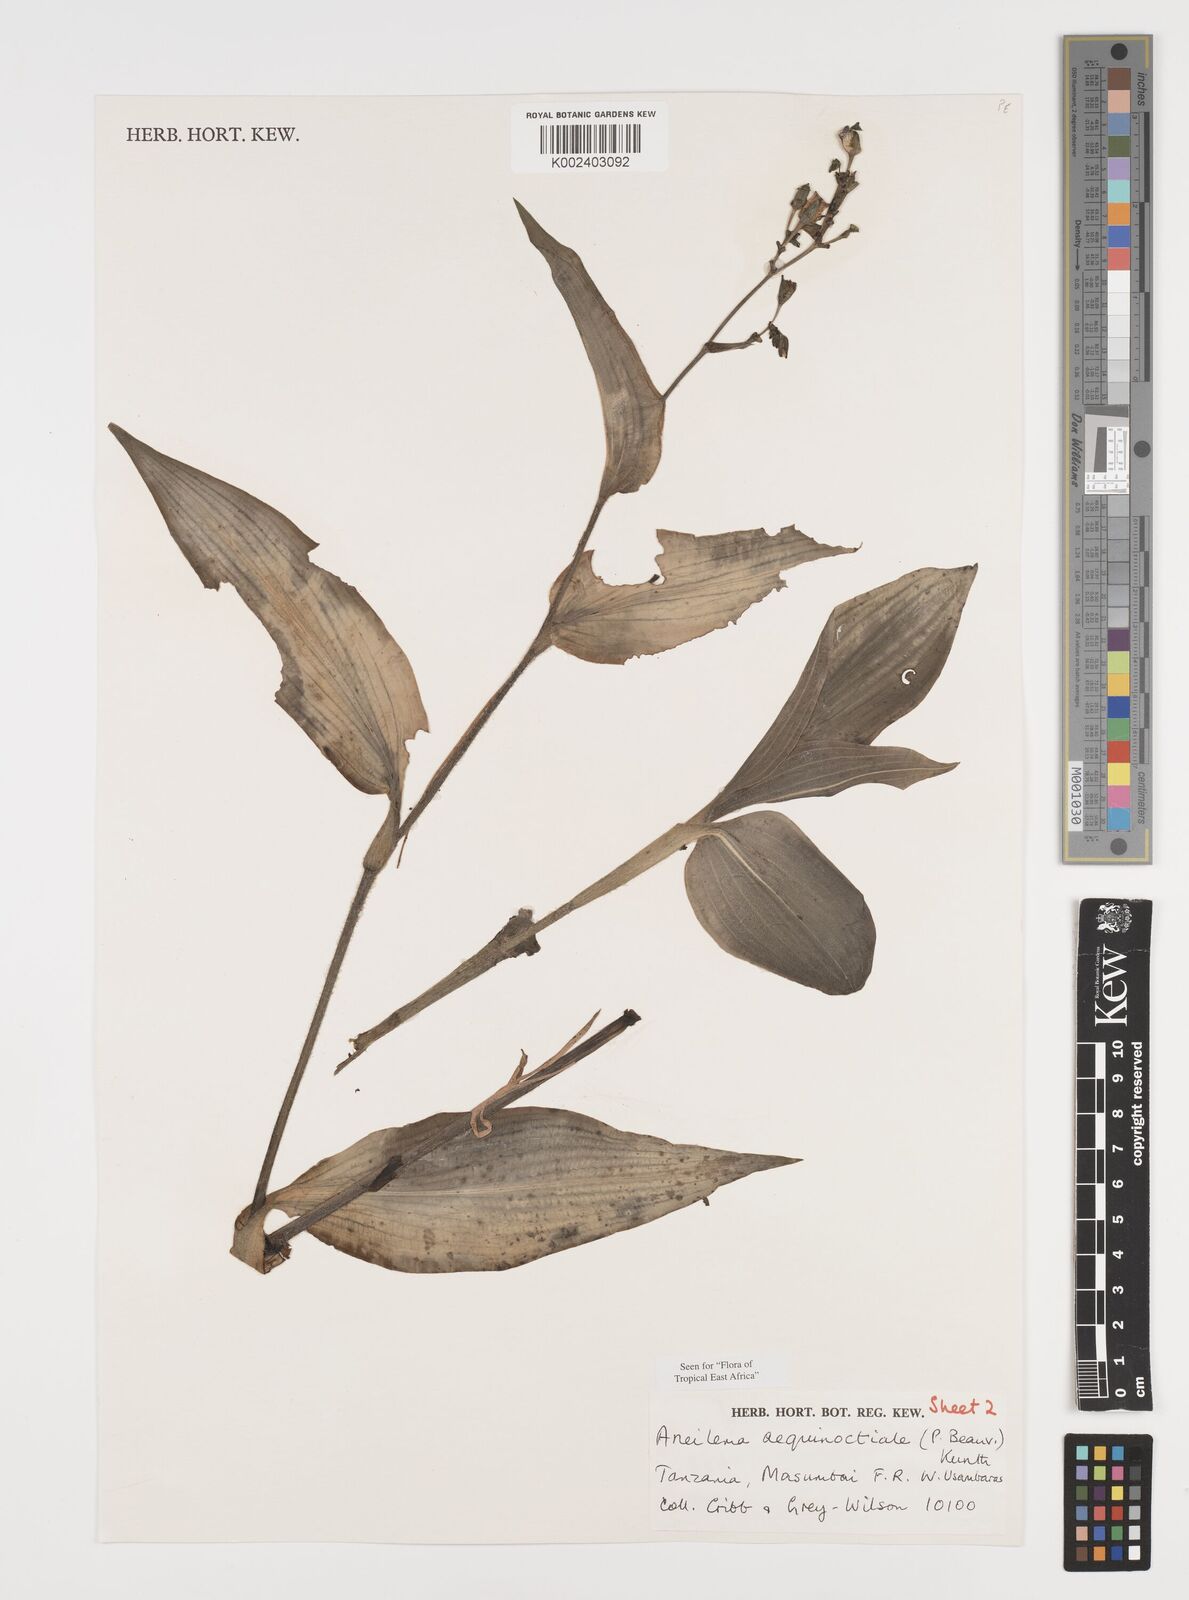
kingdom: Plantae
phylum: Tracheophyta
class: Liliopsida
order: Commelinales
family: Commelinaceae
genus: Aneilema
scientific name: Aneilema aequinoctiale
